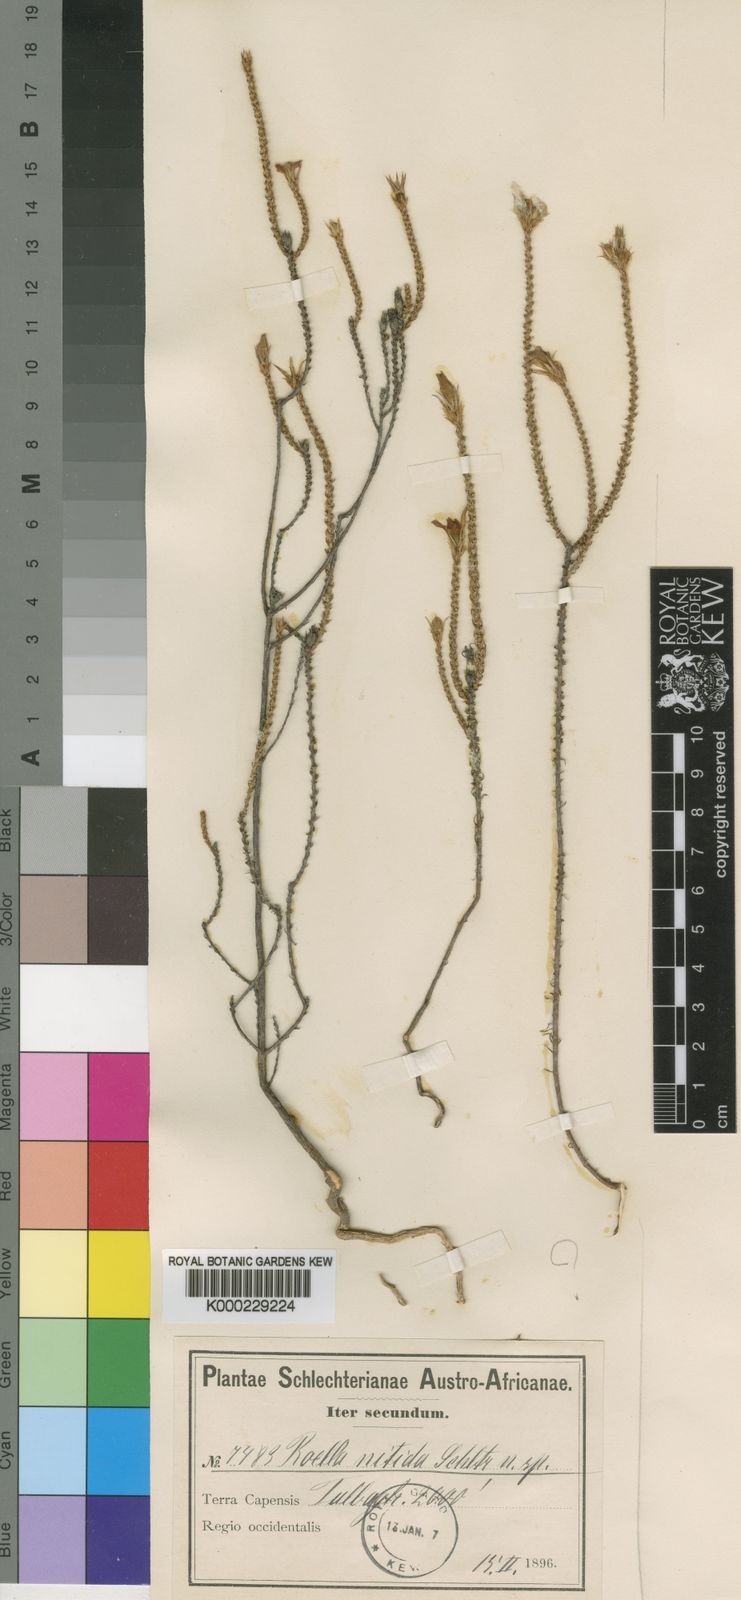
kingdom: Plantae
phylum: Tracheophyta
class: Magnoliopsida
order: Asterales
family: Campanulaceae
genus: Roella
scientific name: Roella dregeana
